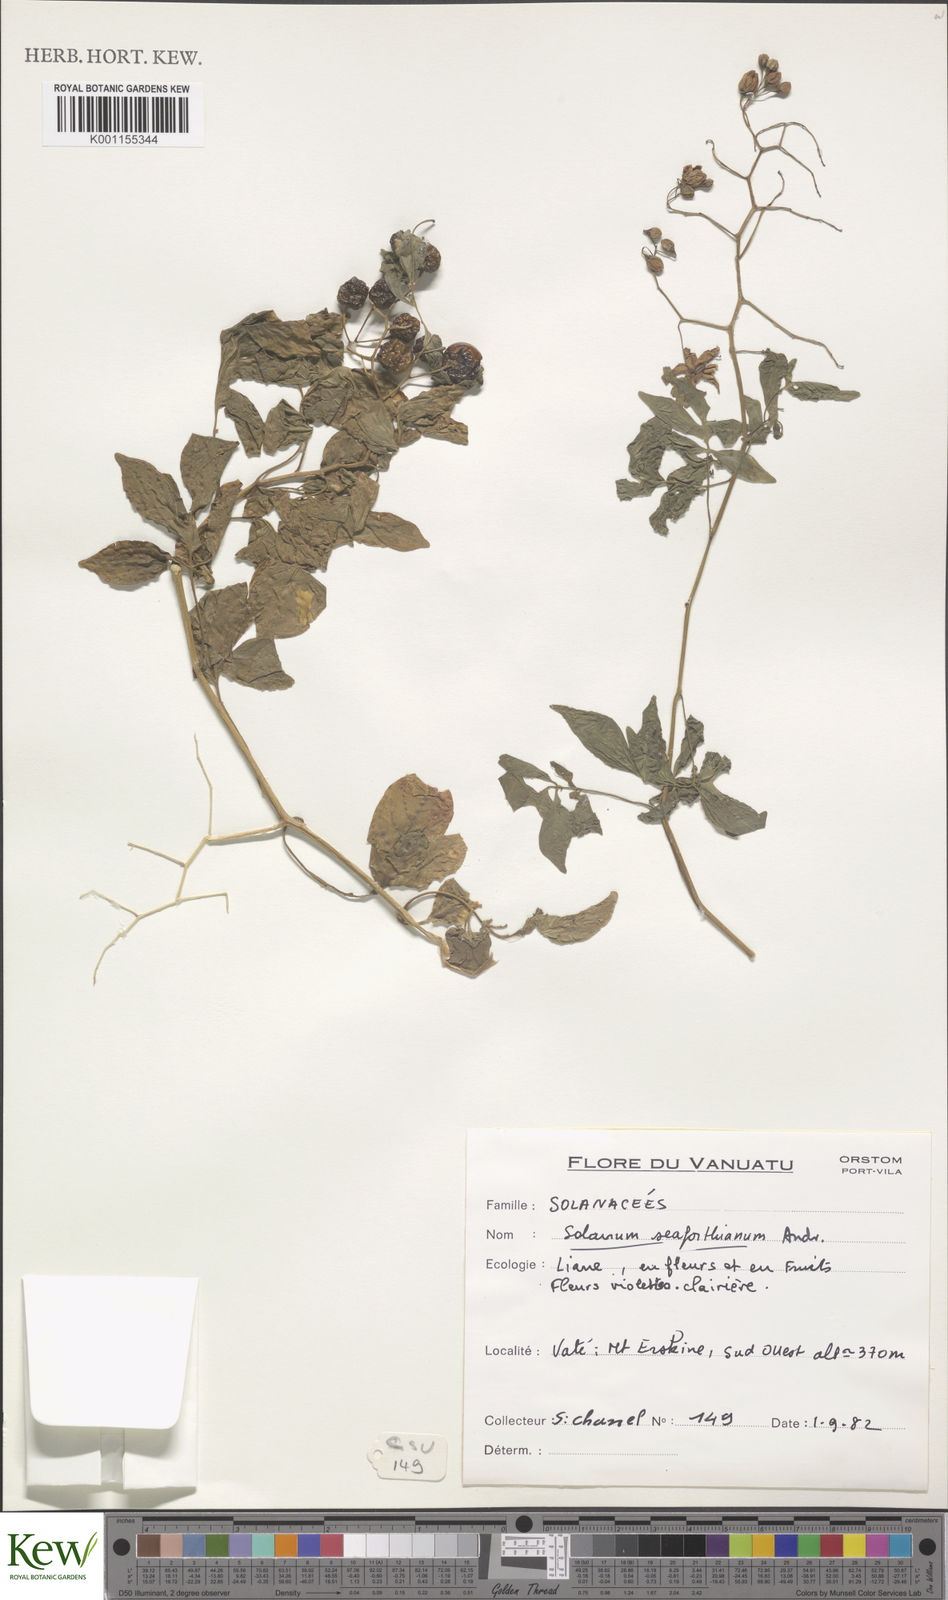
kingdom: Plantae
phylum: Tracheophyta
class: Magnoliopsida
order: Solanales
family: Solanaceae
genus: Solanum
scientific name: Solanum seaforthianum
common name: Brazilian nightshade
